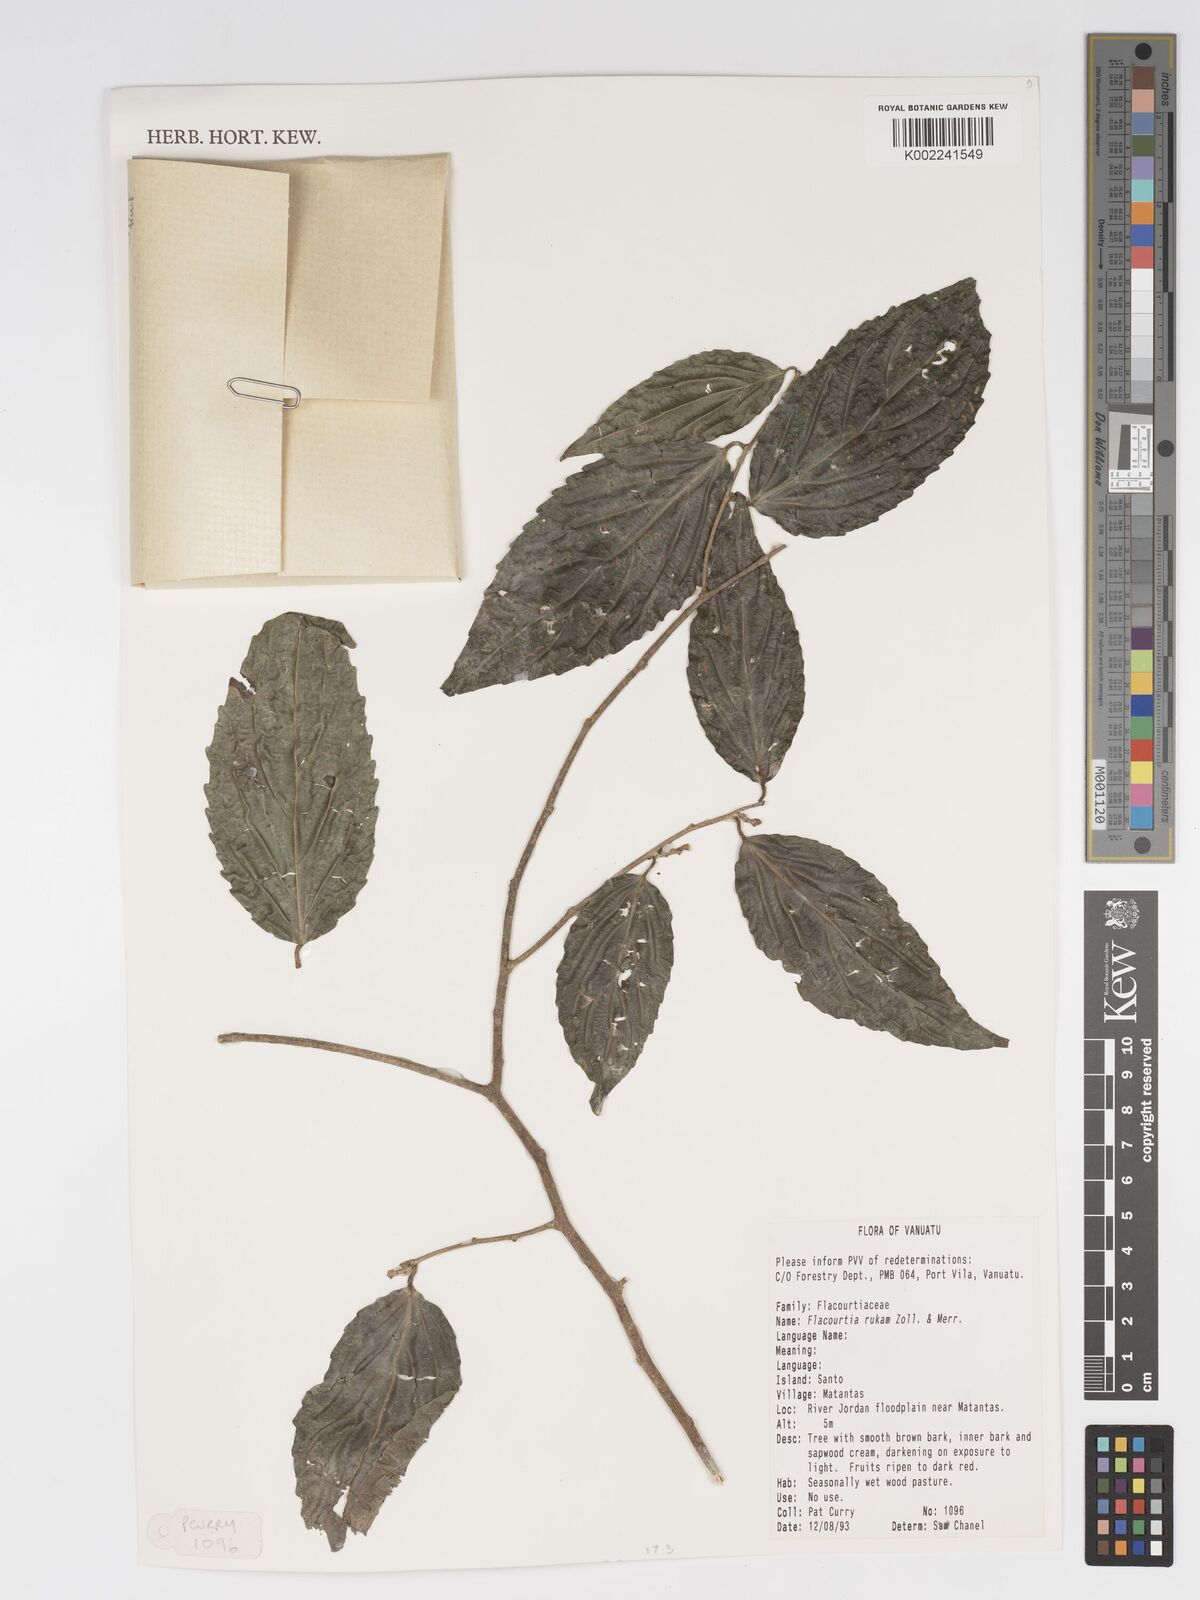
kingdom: Plantae
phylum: Tracheophyta
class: Magnoliopsida
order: Malpighiales
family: Salicaceae
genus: Flacourtia
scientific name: Flacourtia rukam
